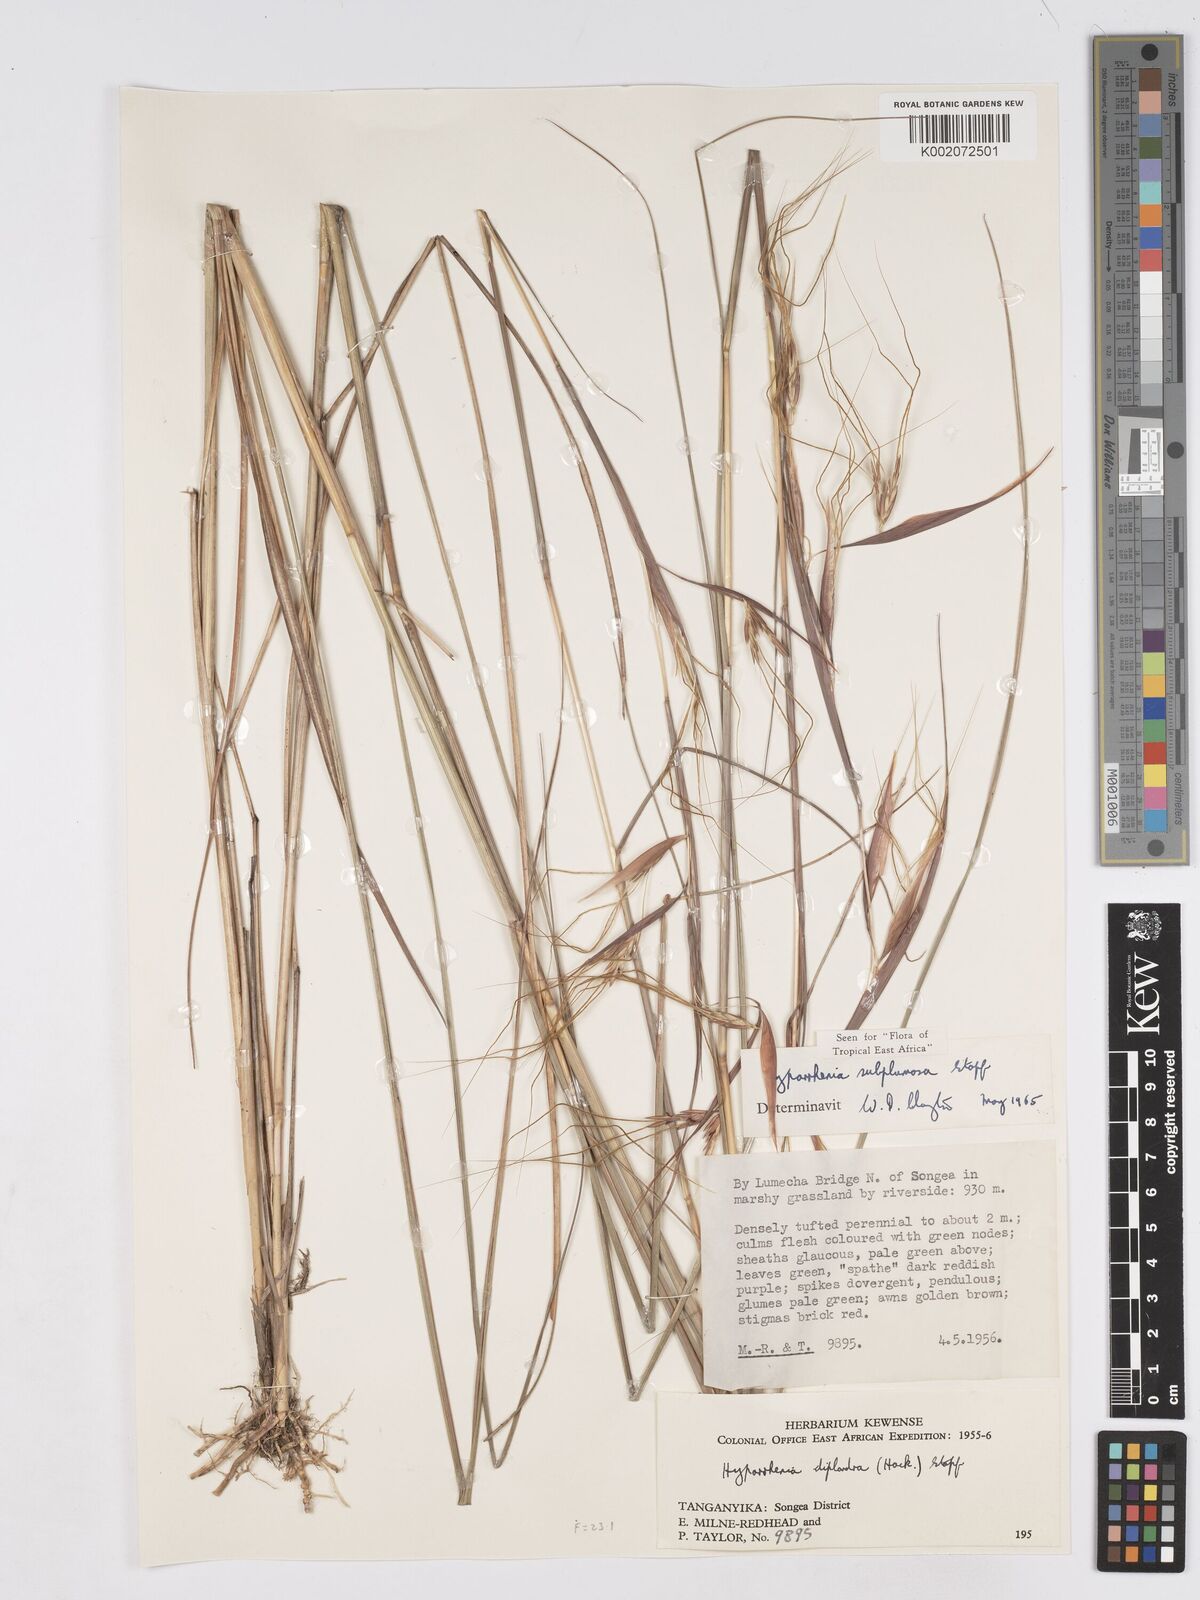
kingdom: Plantae
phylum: Tracheophyta
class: Liliopsida
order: Poales
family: Poaceae
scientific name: Poaceae
